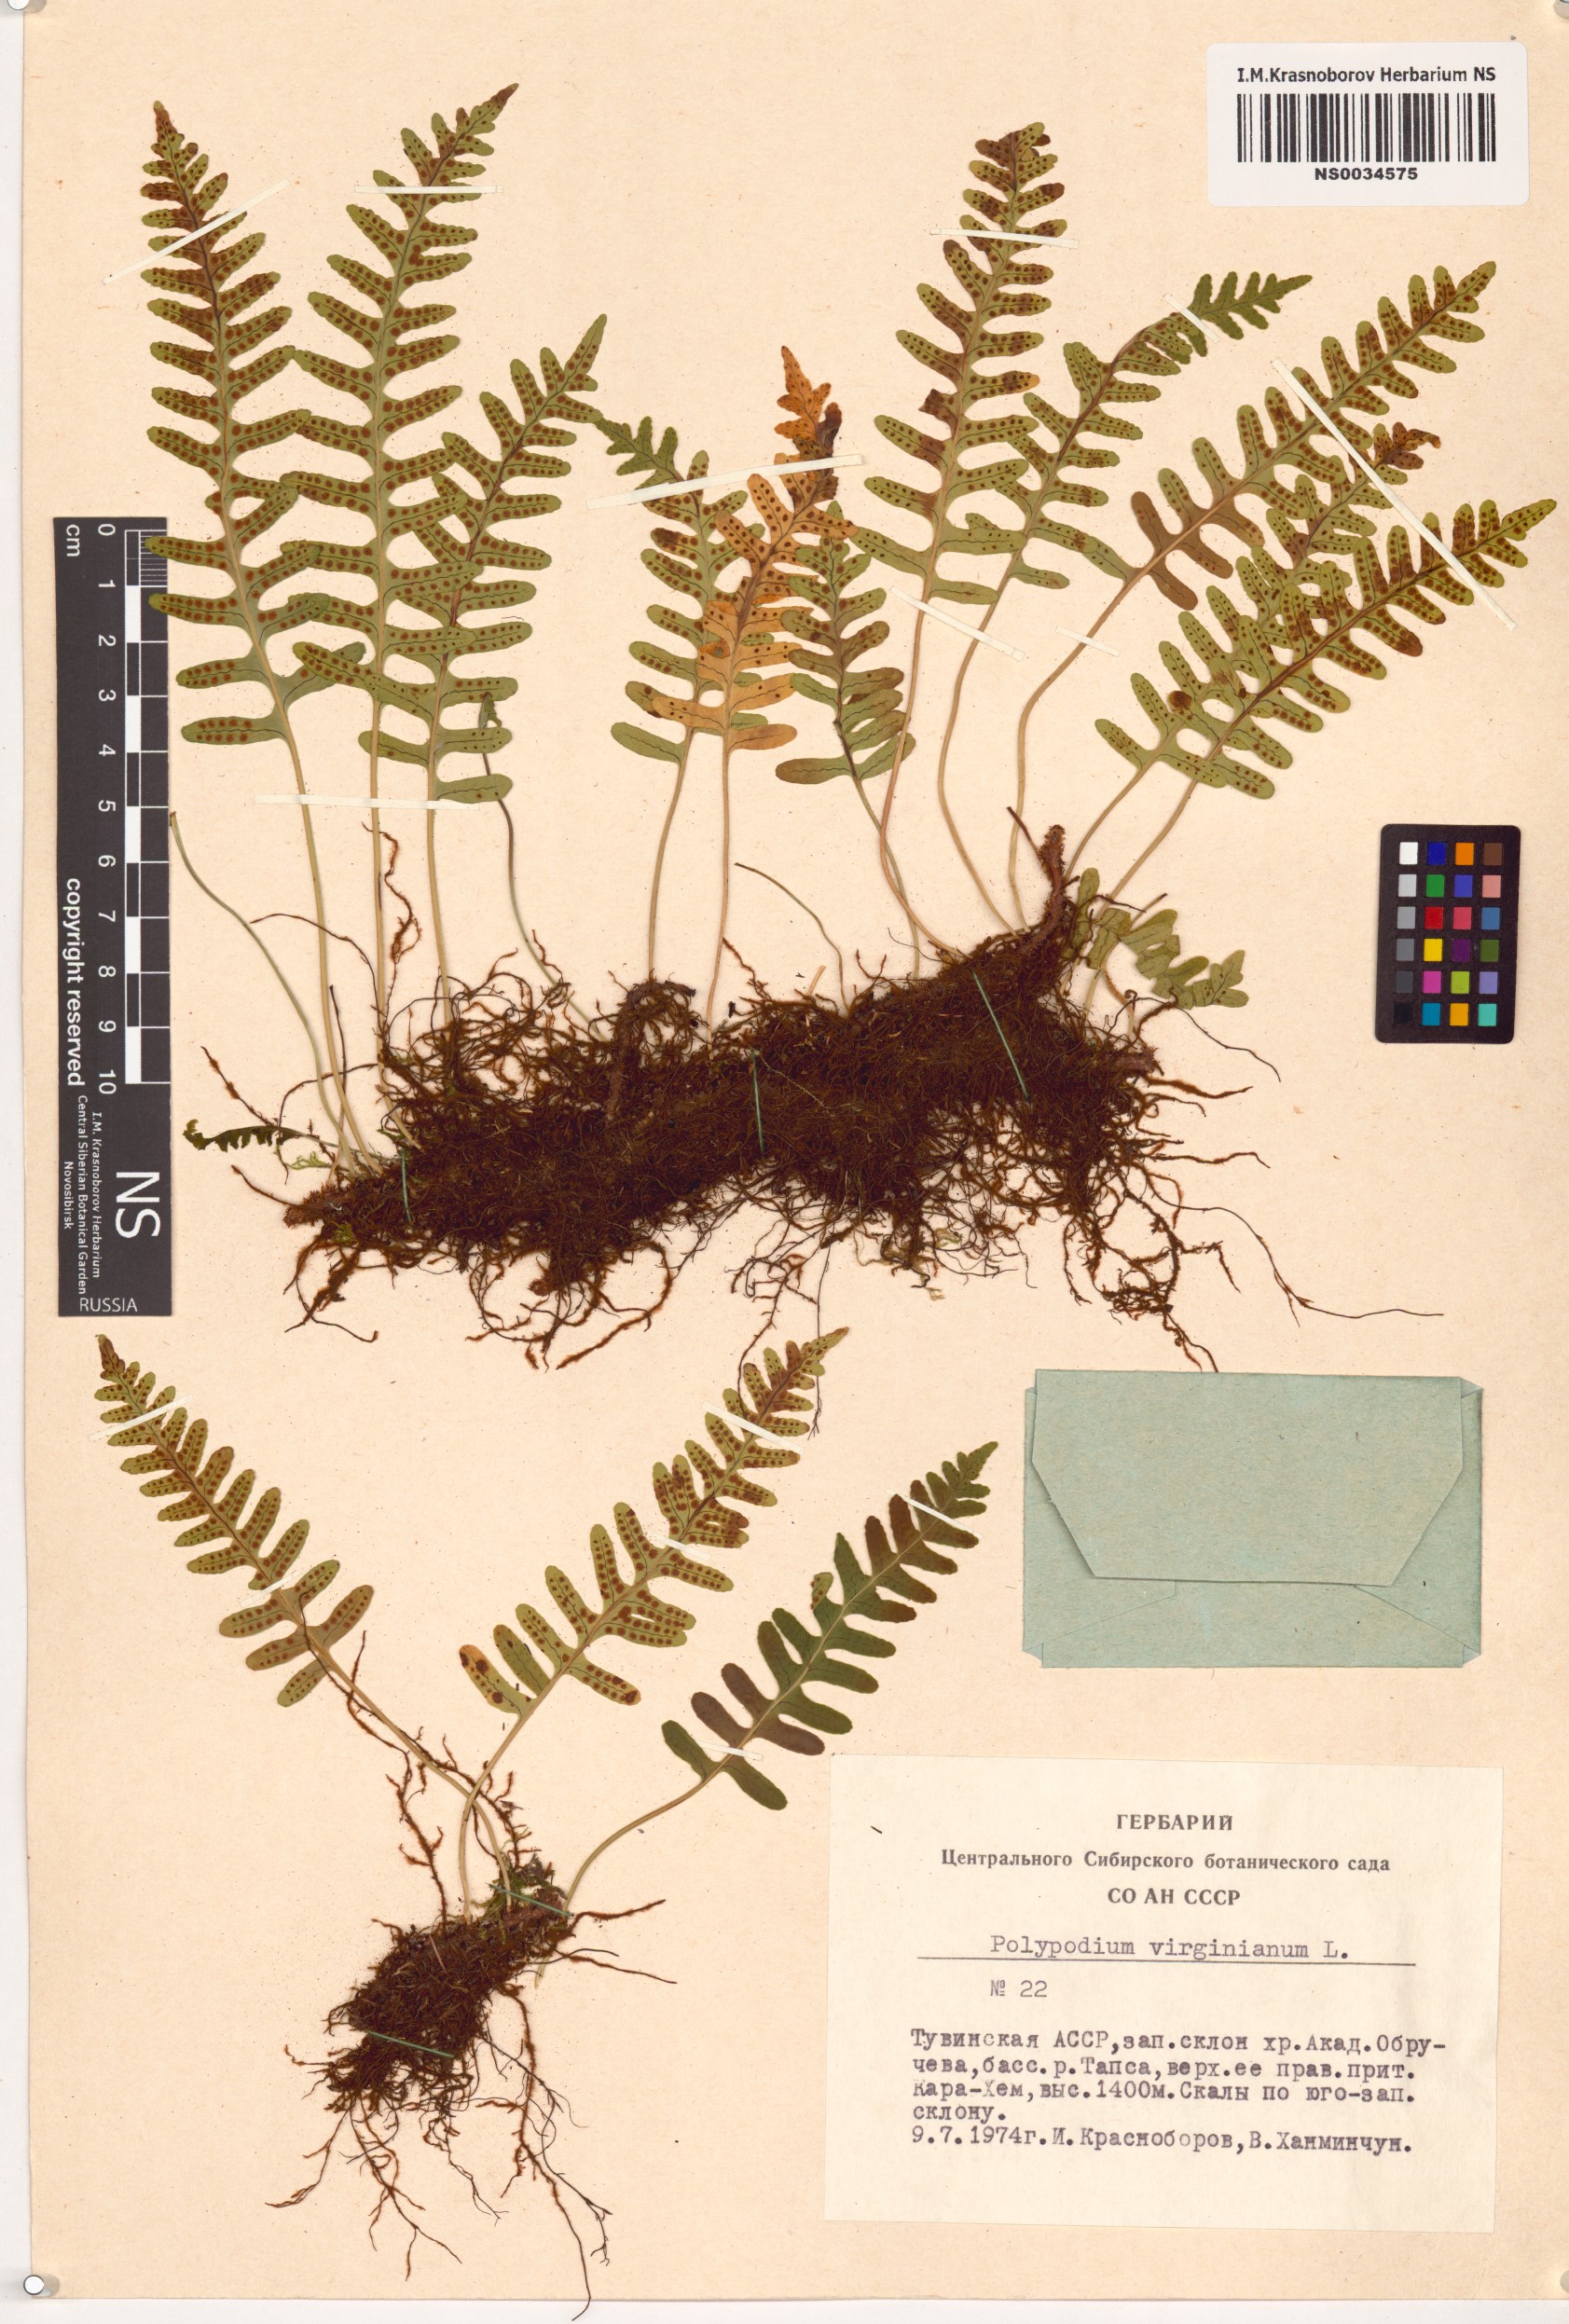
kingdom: Plantae
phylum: Tracheophyta
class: Polypodiopsida
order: Polypodiales
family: Polypodiaceae
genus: Polypodium
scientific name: Polypodium virginianum
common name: American wall fern
